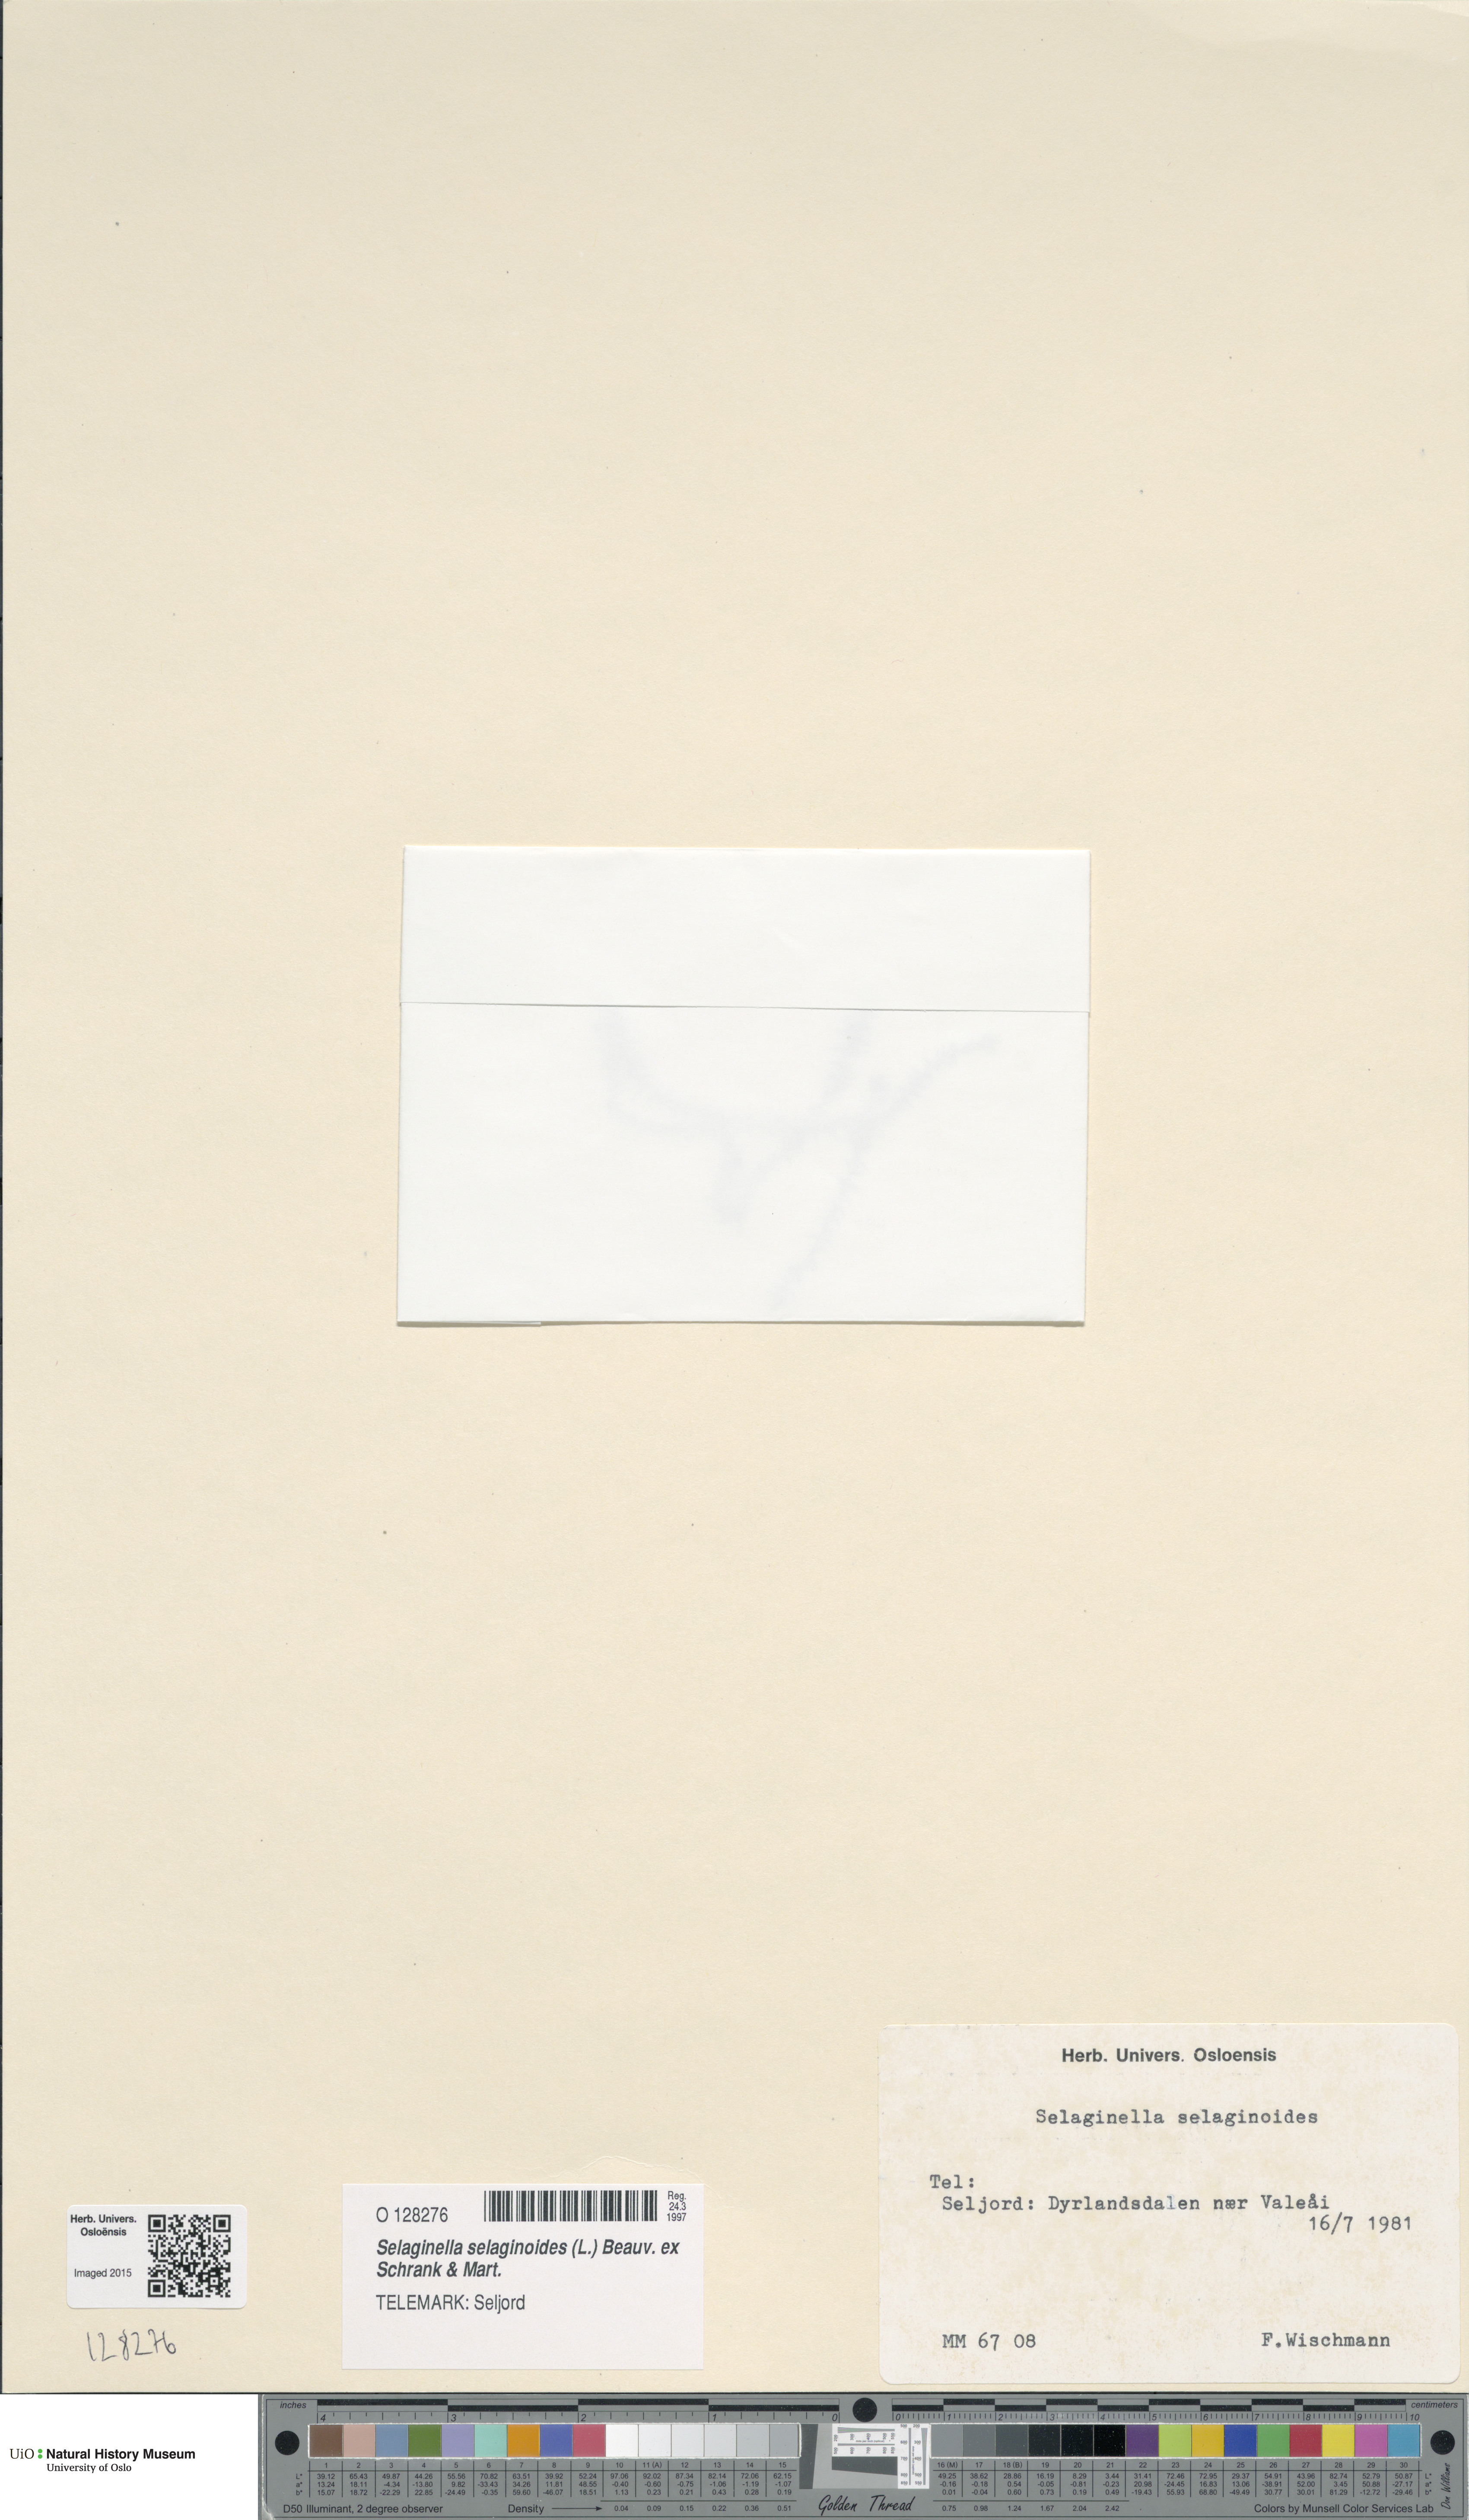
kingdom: Plantae
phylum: Tracheophyta
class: Lycopodiopsida
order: Selaginellales
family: Selaginellaceae
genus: Selaginella
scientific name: Selaginella selaginoides
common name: Prickly mountain-moss
